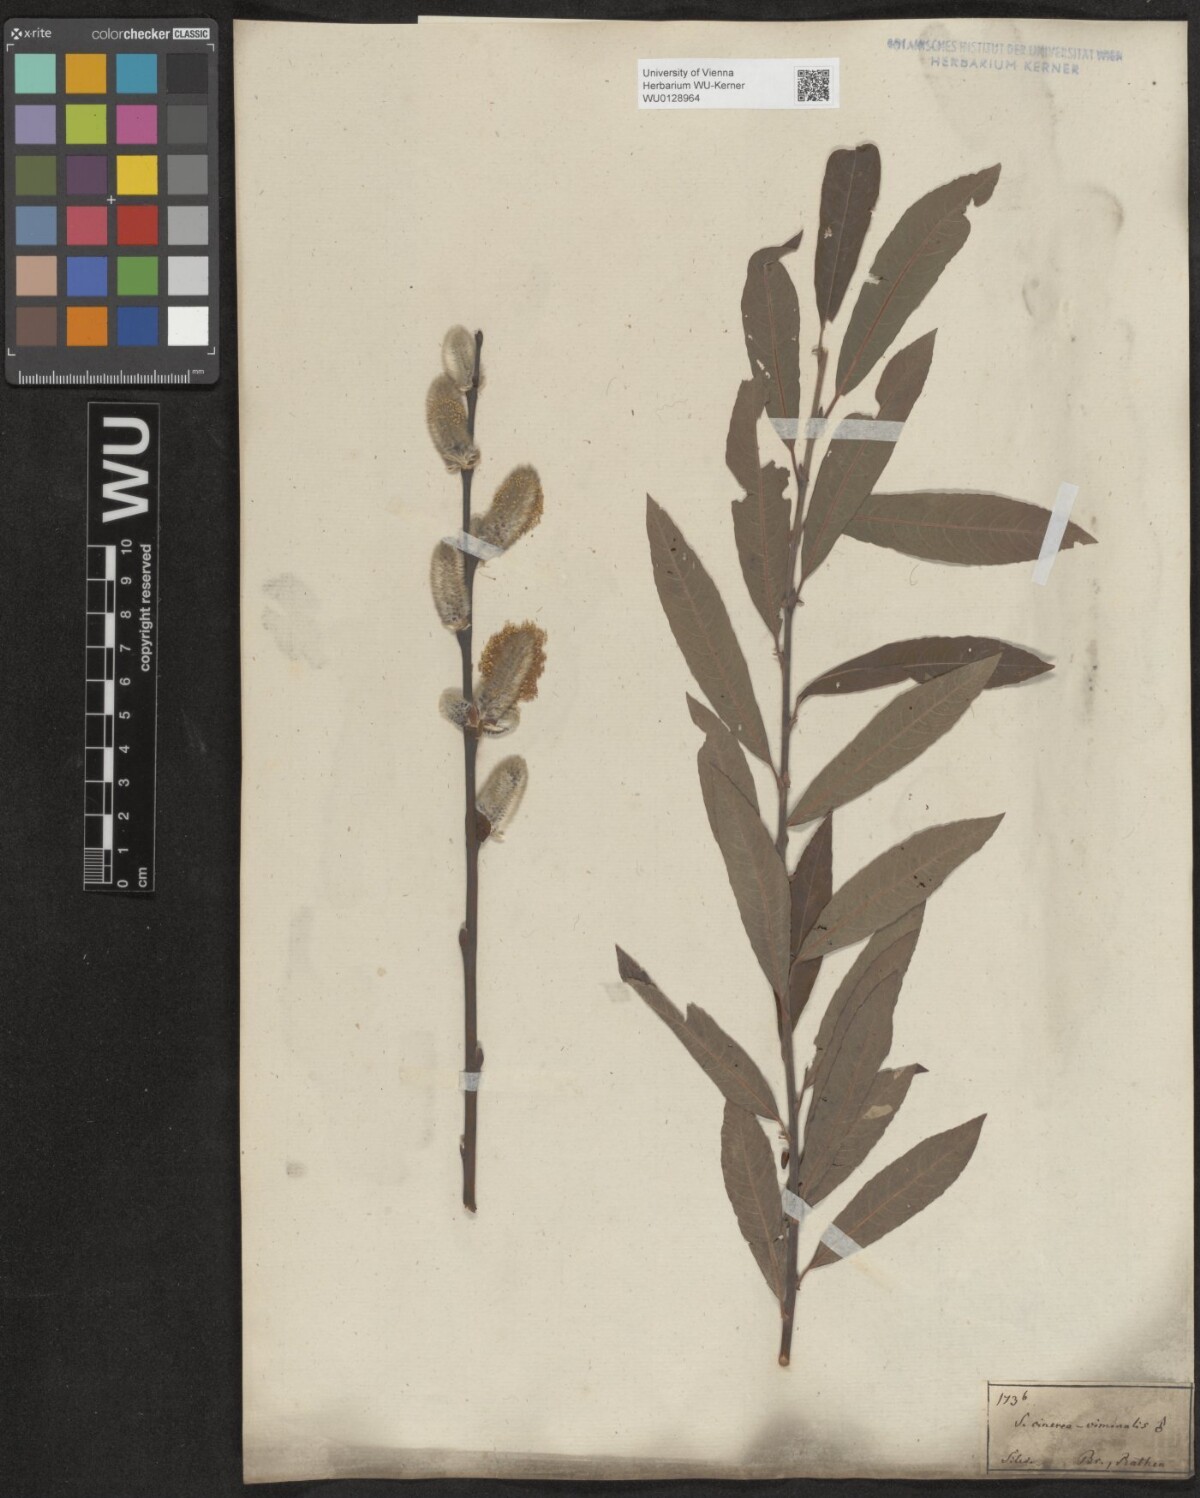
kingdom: Plantae
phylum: Tracheophyta
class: Magnoliopsida
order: Malpighiales
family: Salicaceae
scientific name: Salicaceae
